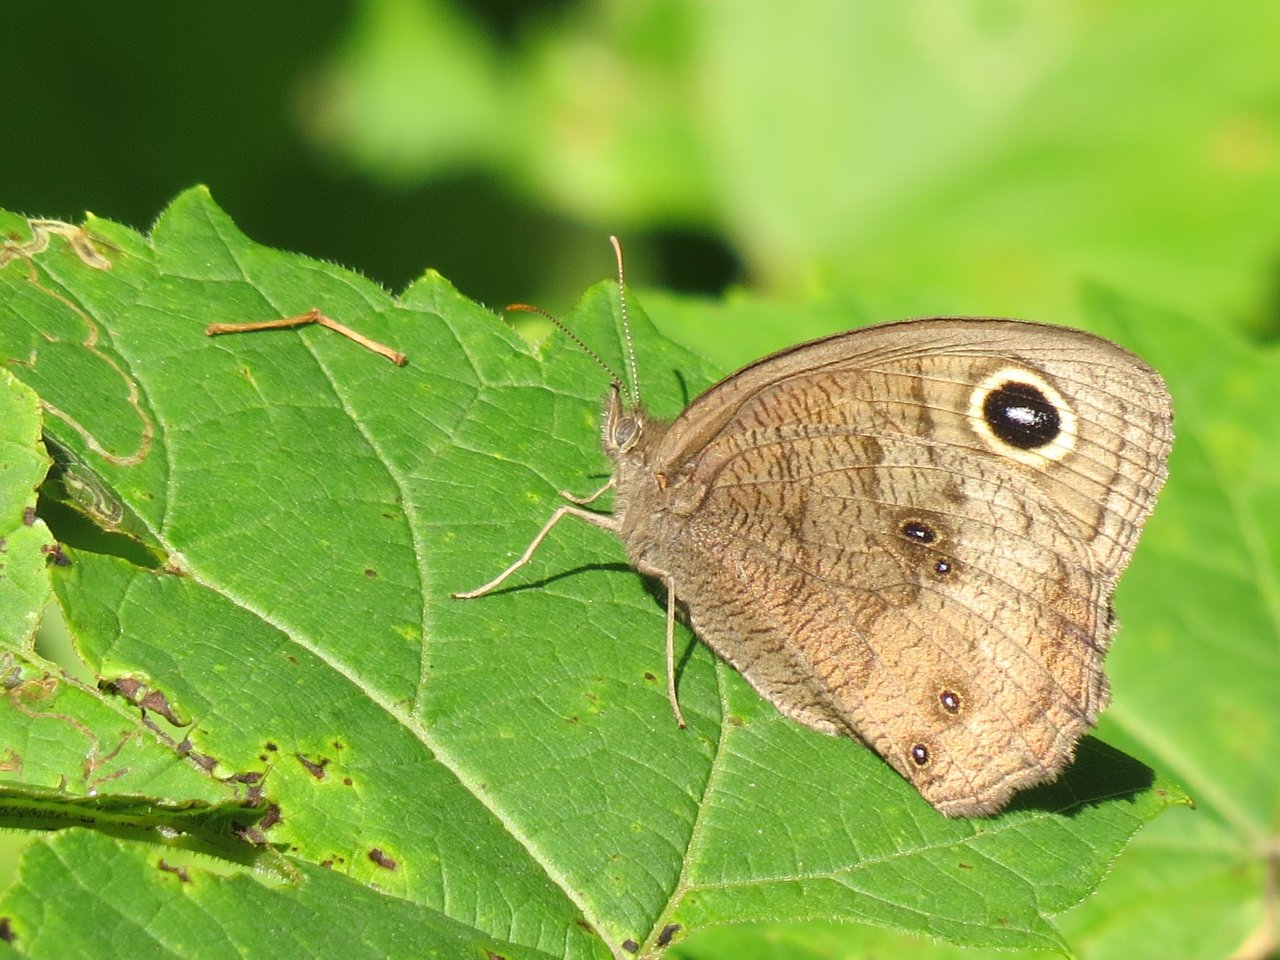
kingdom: Animalia
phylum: Arthropoda
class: Insecta
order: Lepidoptera
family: Nymphalidae
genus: Cercyonis
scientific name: Cercyonis pegala
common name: Common Wood-Nymph
